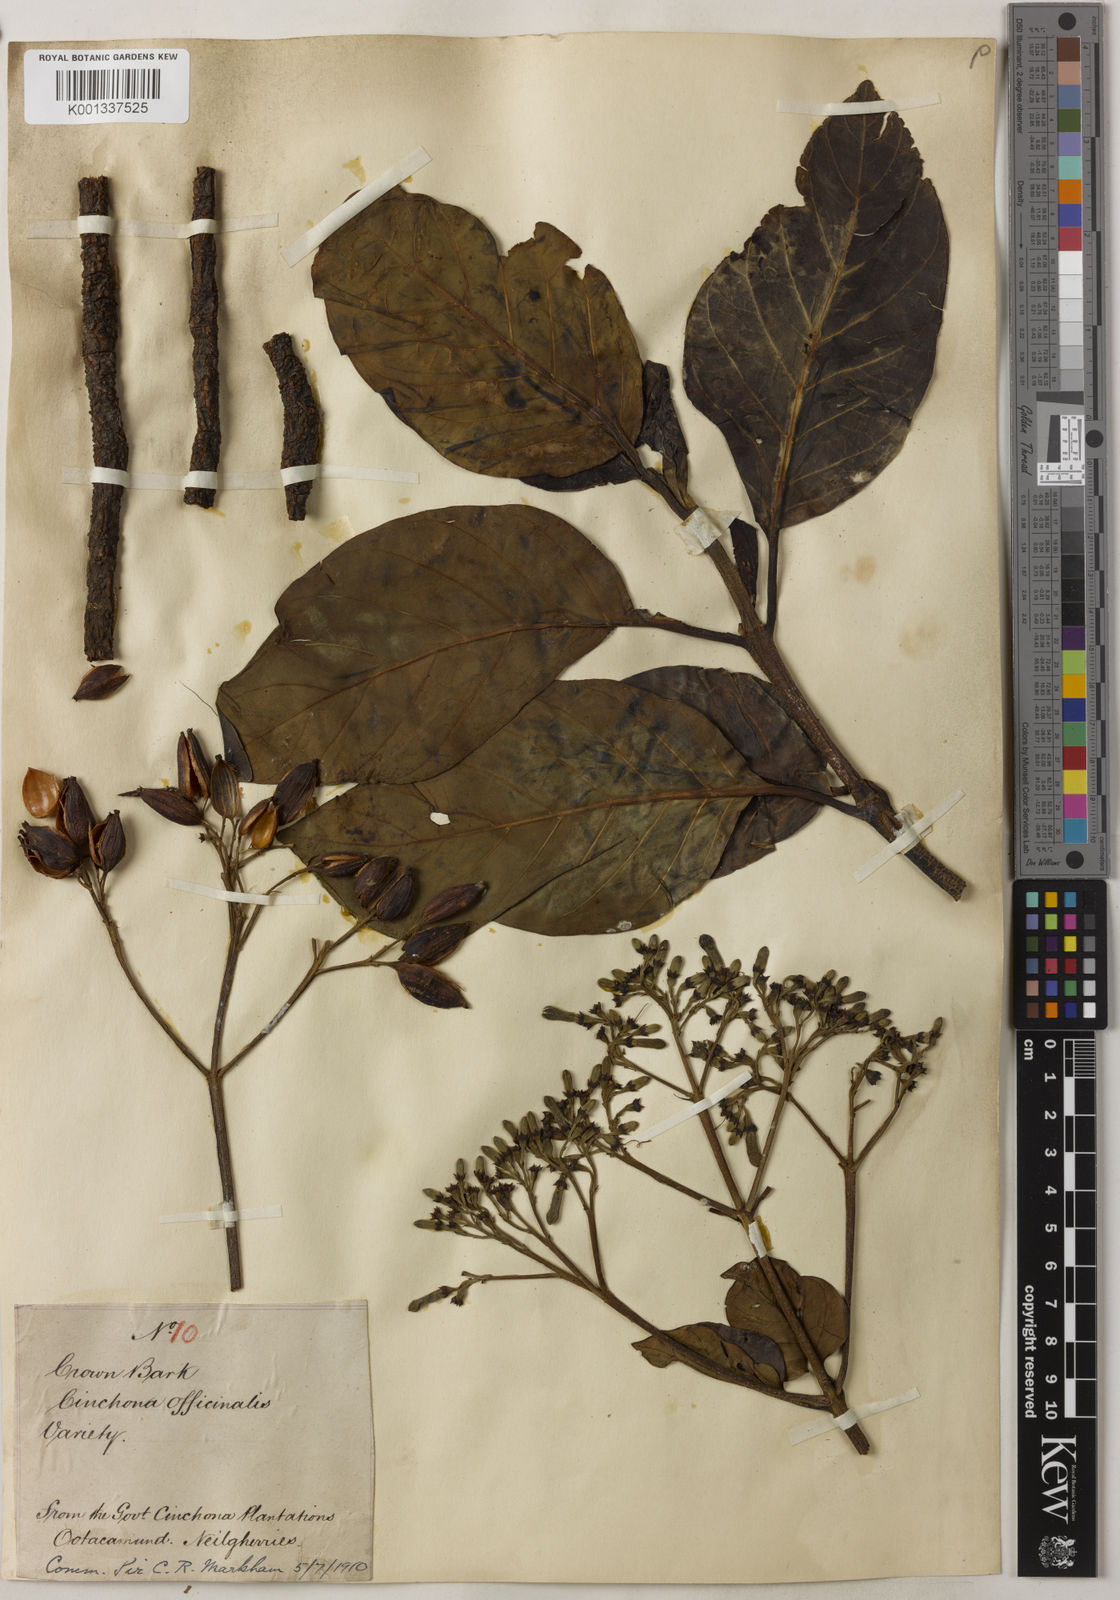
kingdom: Plantae
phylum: Tracheophyta
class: Magnoliopsida
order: Gentianales
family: Rubiaceae
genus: Cinchona
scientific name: Cinchona officinalis
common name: Lojabark
